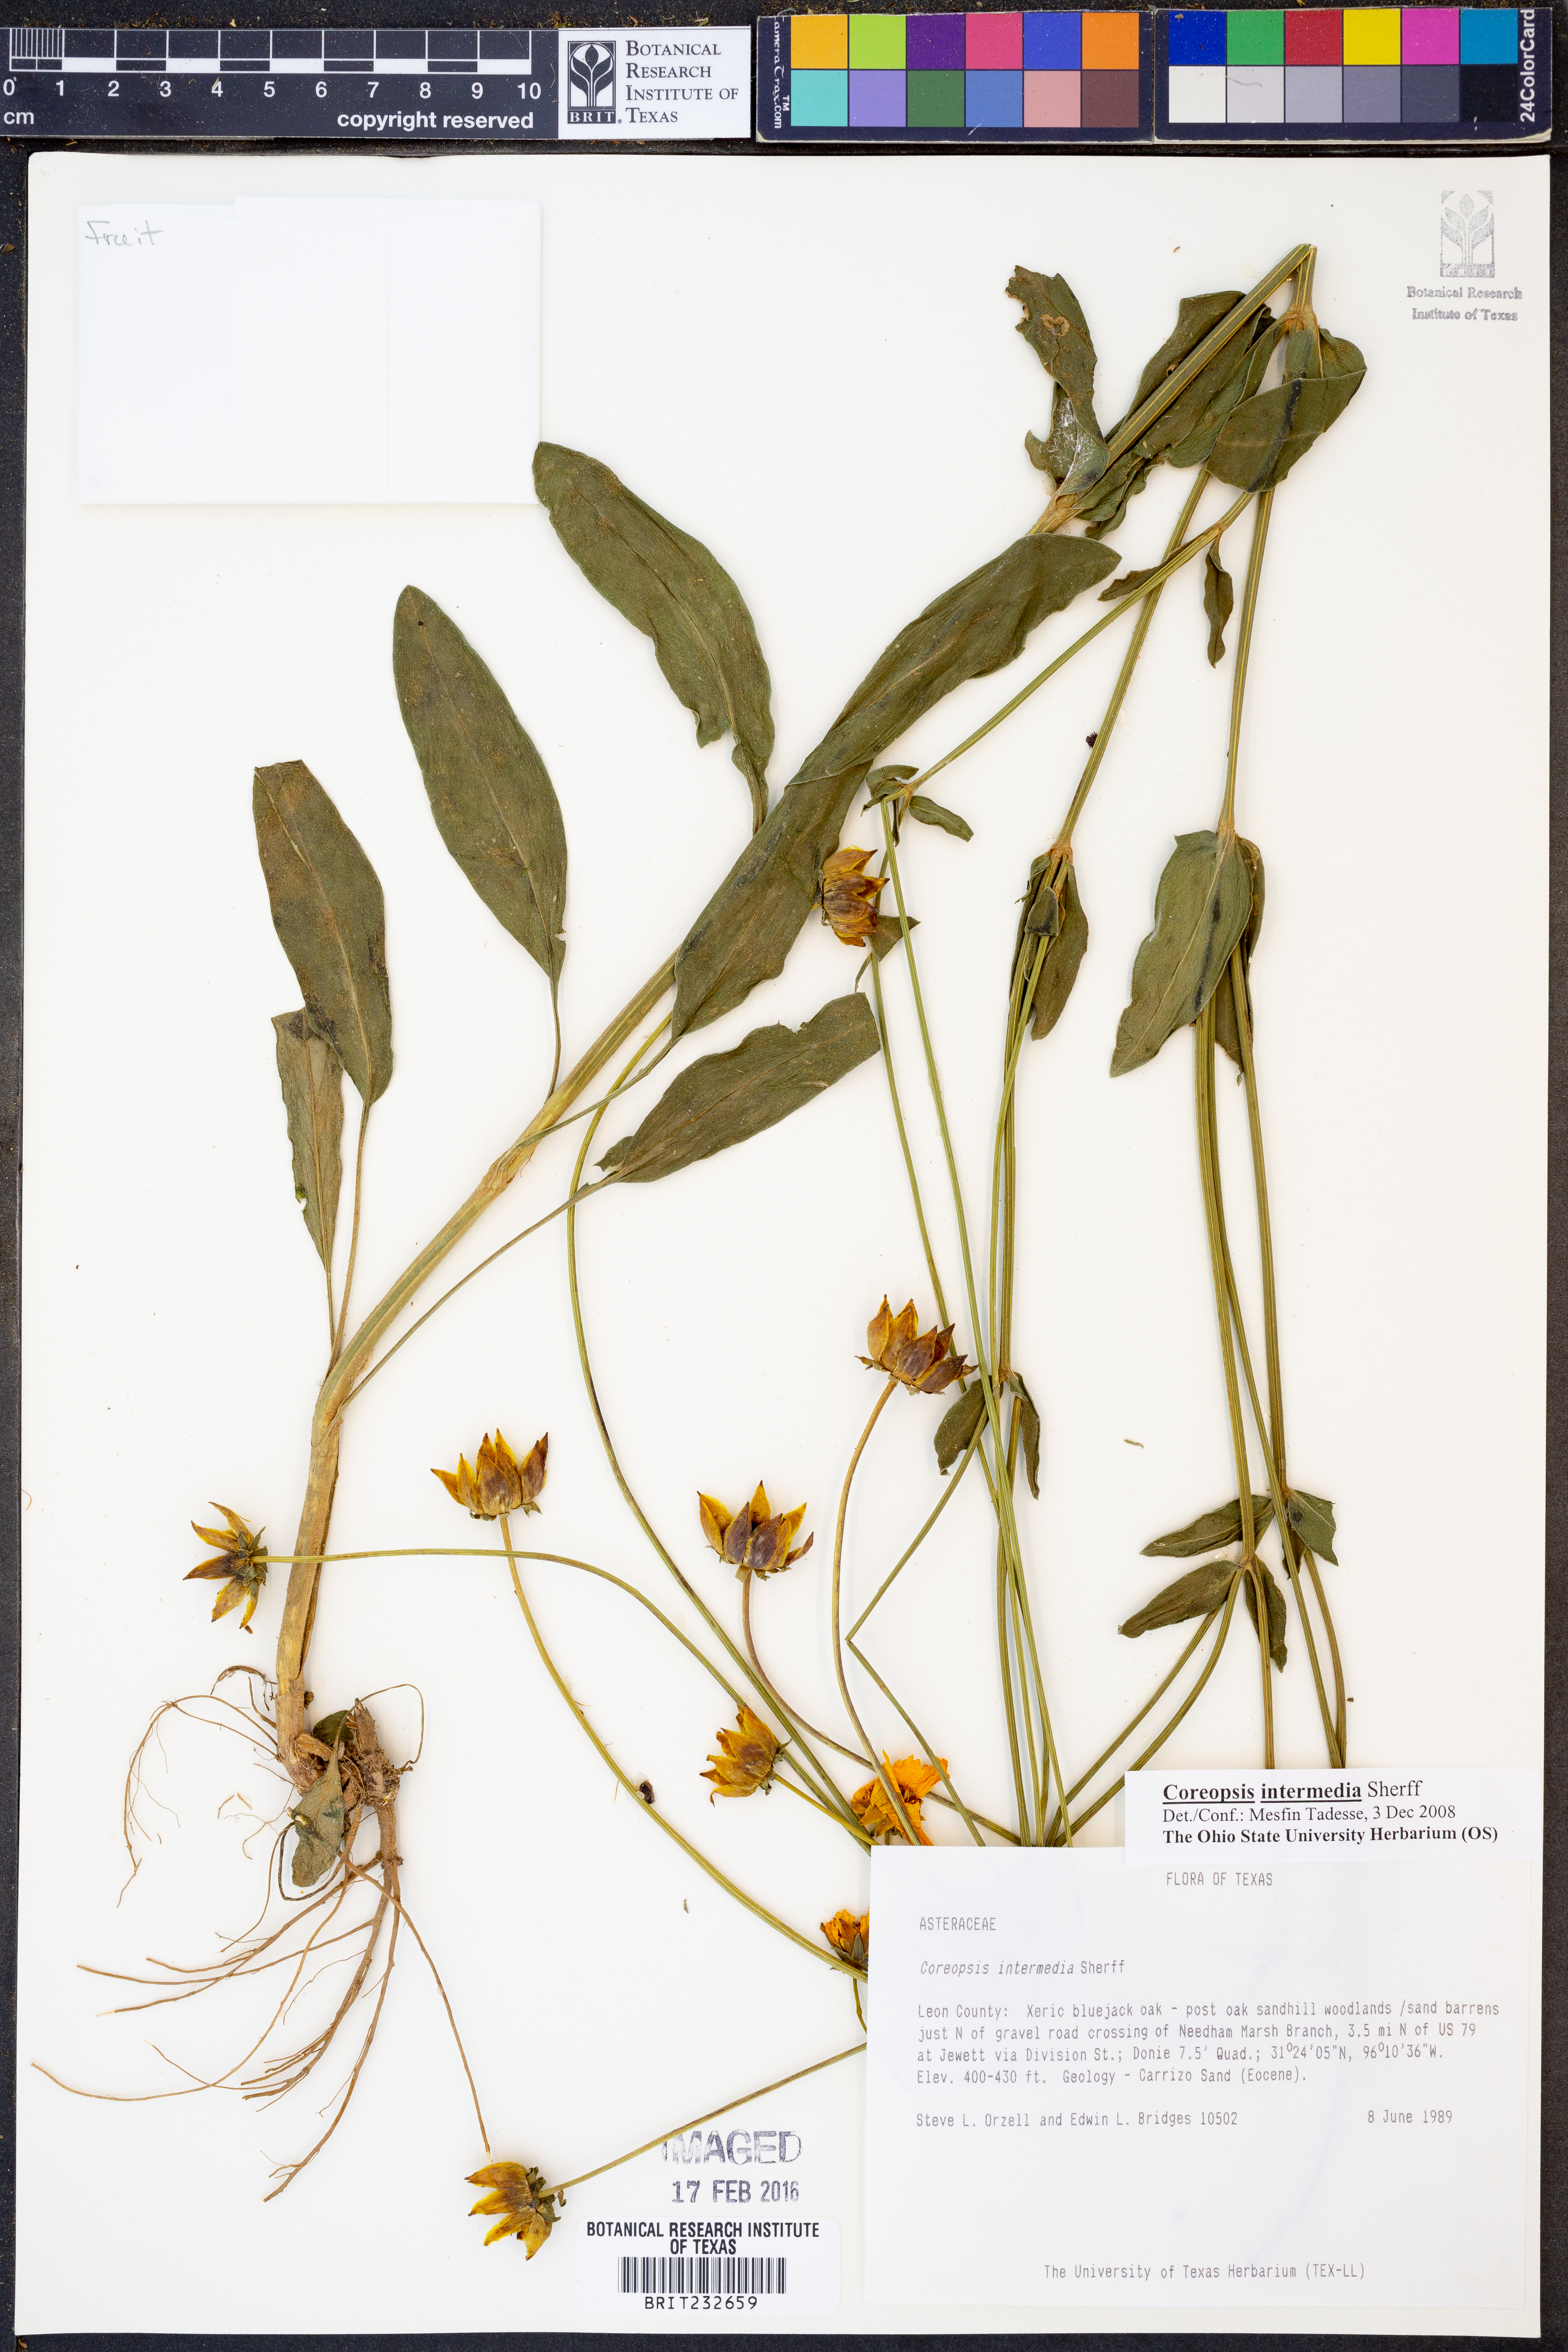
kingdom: Plantae
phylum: Tracheophyta
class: Magnoliopsida
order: Asterales
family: Asteraceae
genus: Coreopsis
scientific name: Coreopsis intermedia
